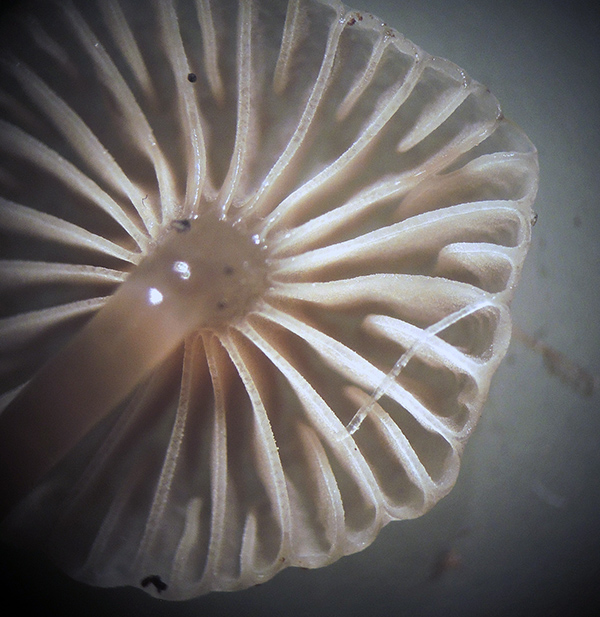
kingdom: Fungi
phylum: Basidiomycota
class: Agaricomycetes
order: Agaricales
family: Mycenaceae
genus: Mycena
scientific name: Mycena vulgaris
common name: klæbrig huesvamp
